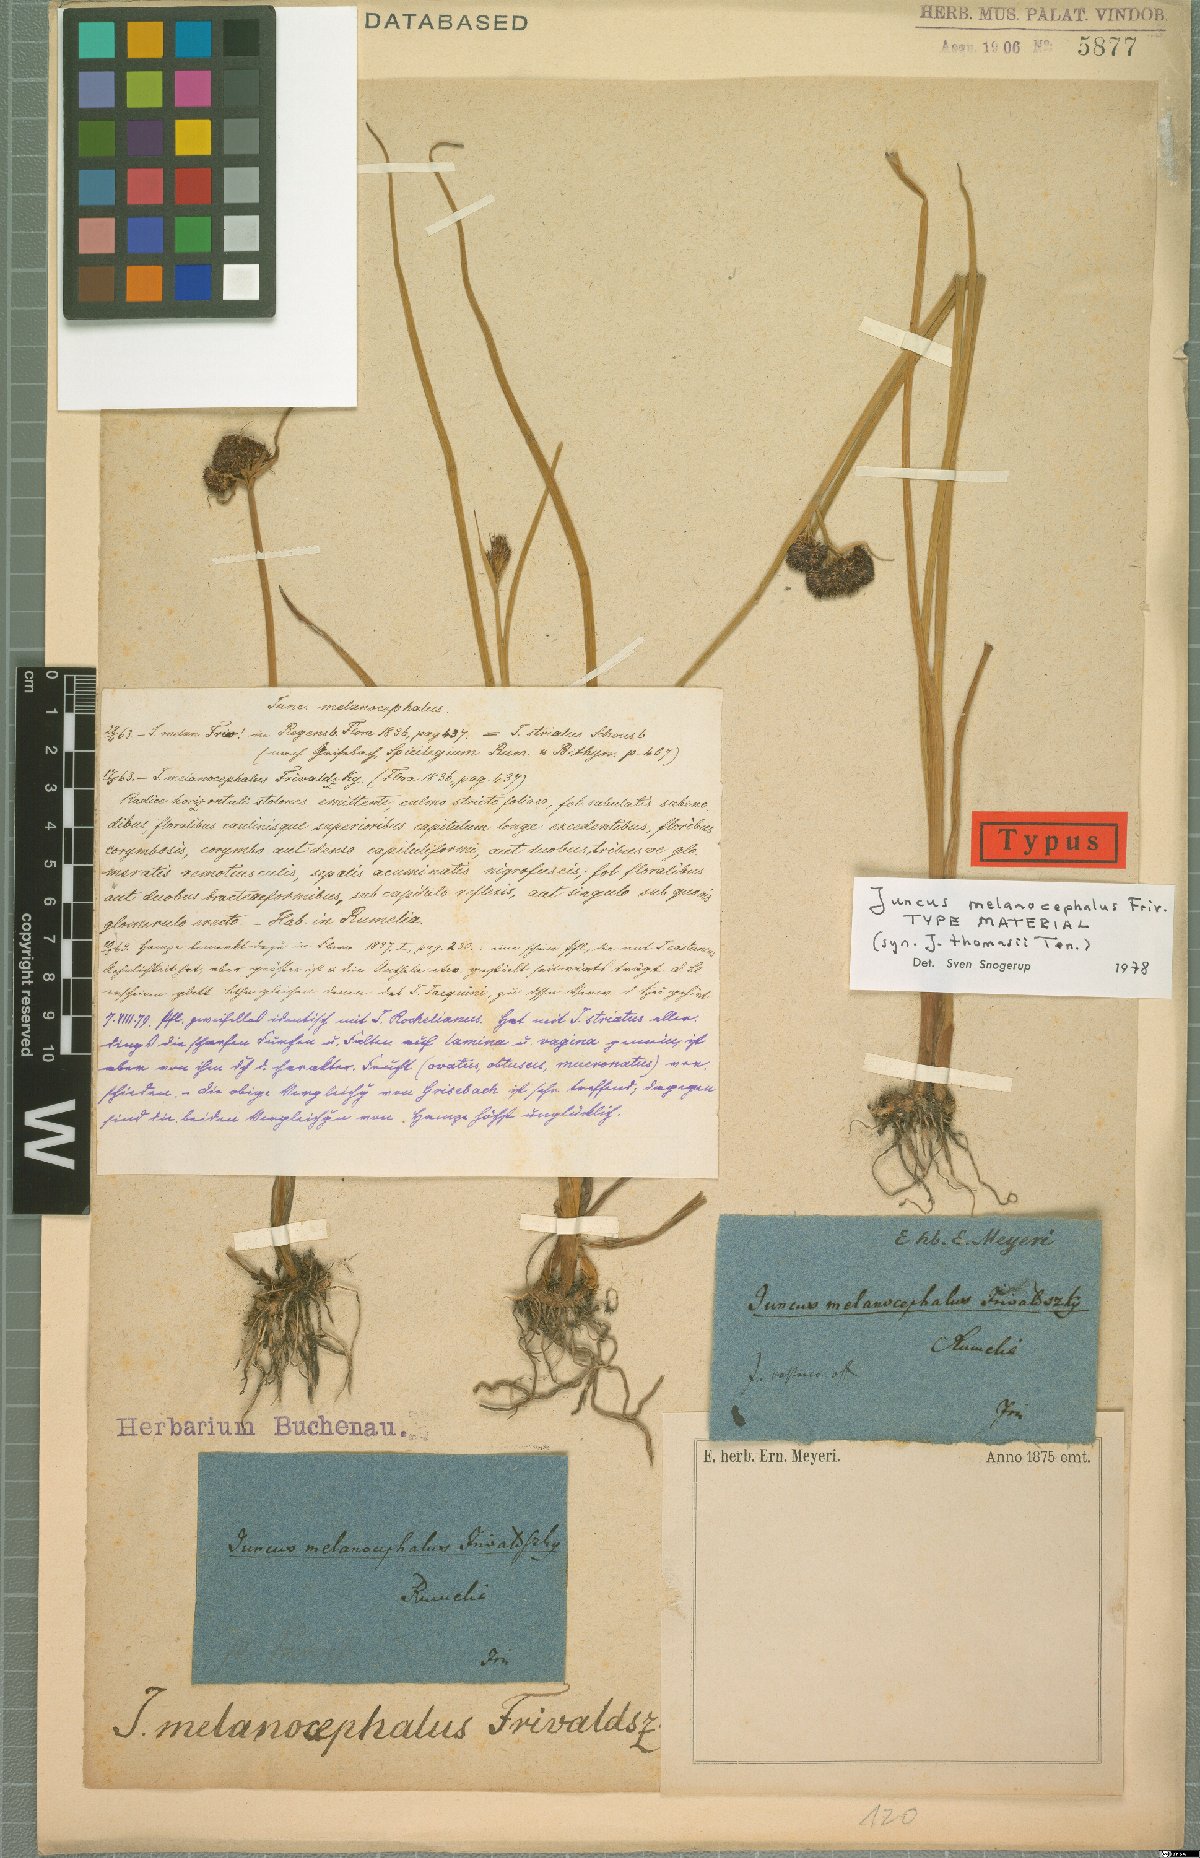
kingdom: Plantae
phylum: Tracheophyta
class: Liliopsida
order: Poales
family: Juncaceae
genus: Juncus
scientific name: Juncus thomasii
